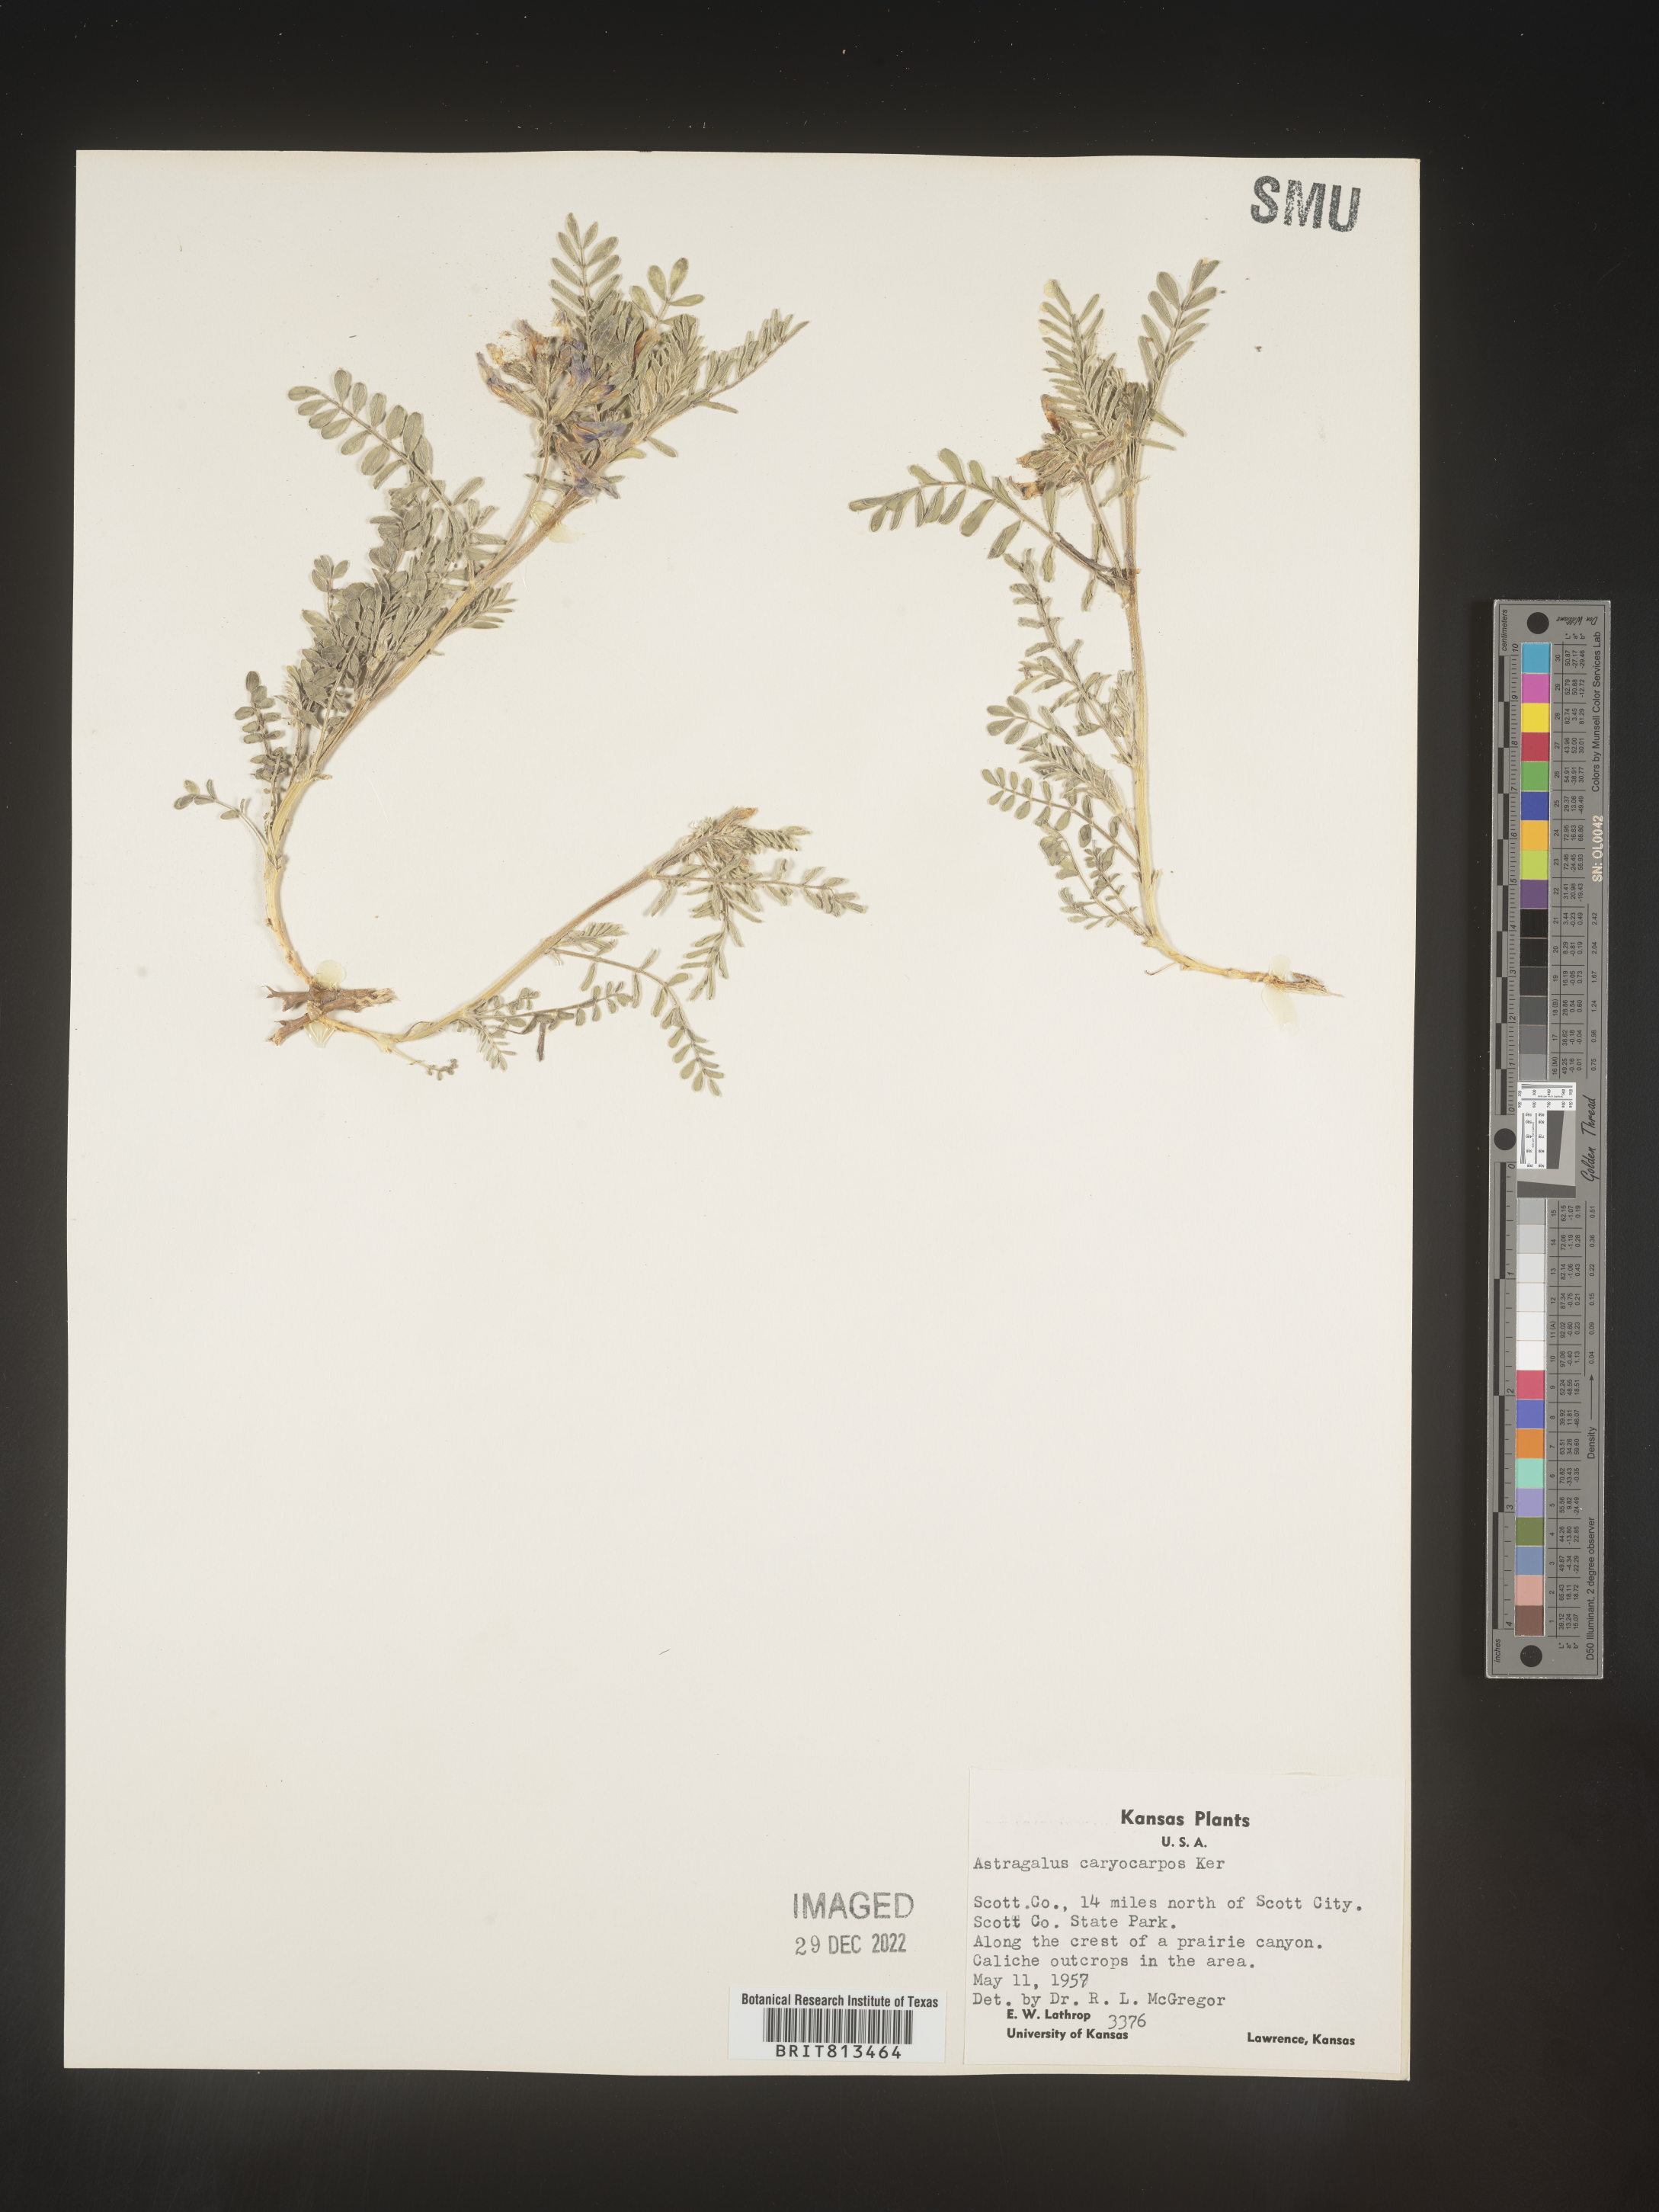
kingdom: Plantae
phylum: Tracheophyta
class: Magnoliopsida
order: Fabales
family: Fabaceae
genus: Astragalus
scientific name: Astragalus
